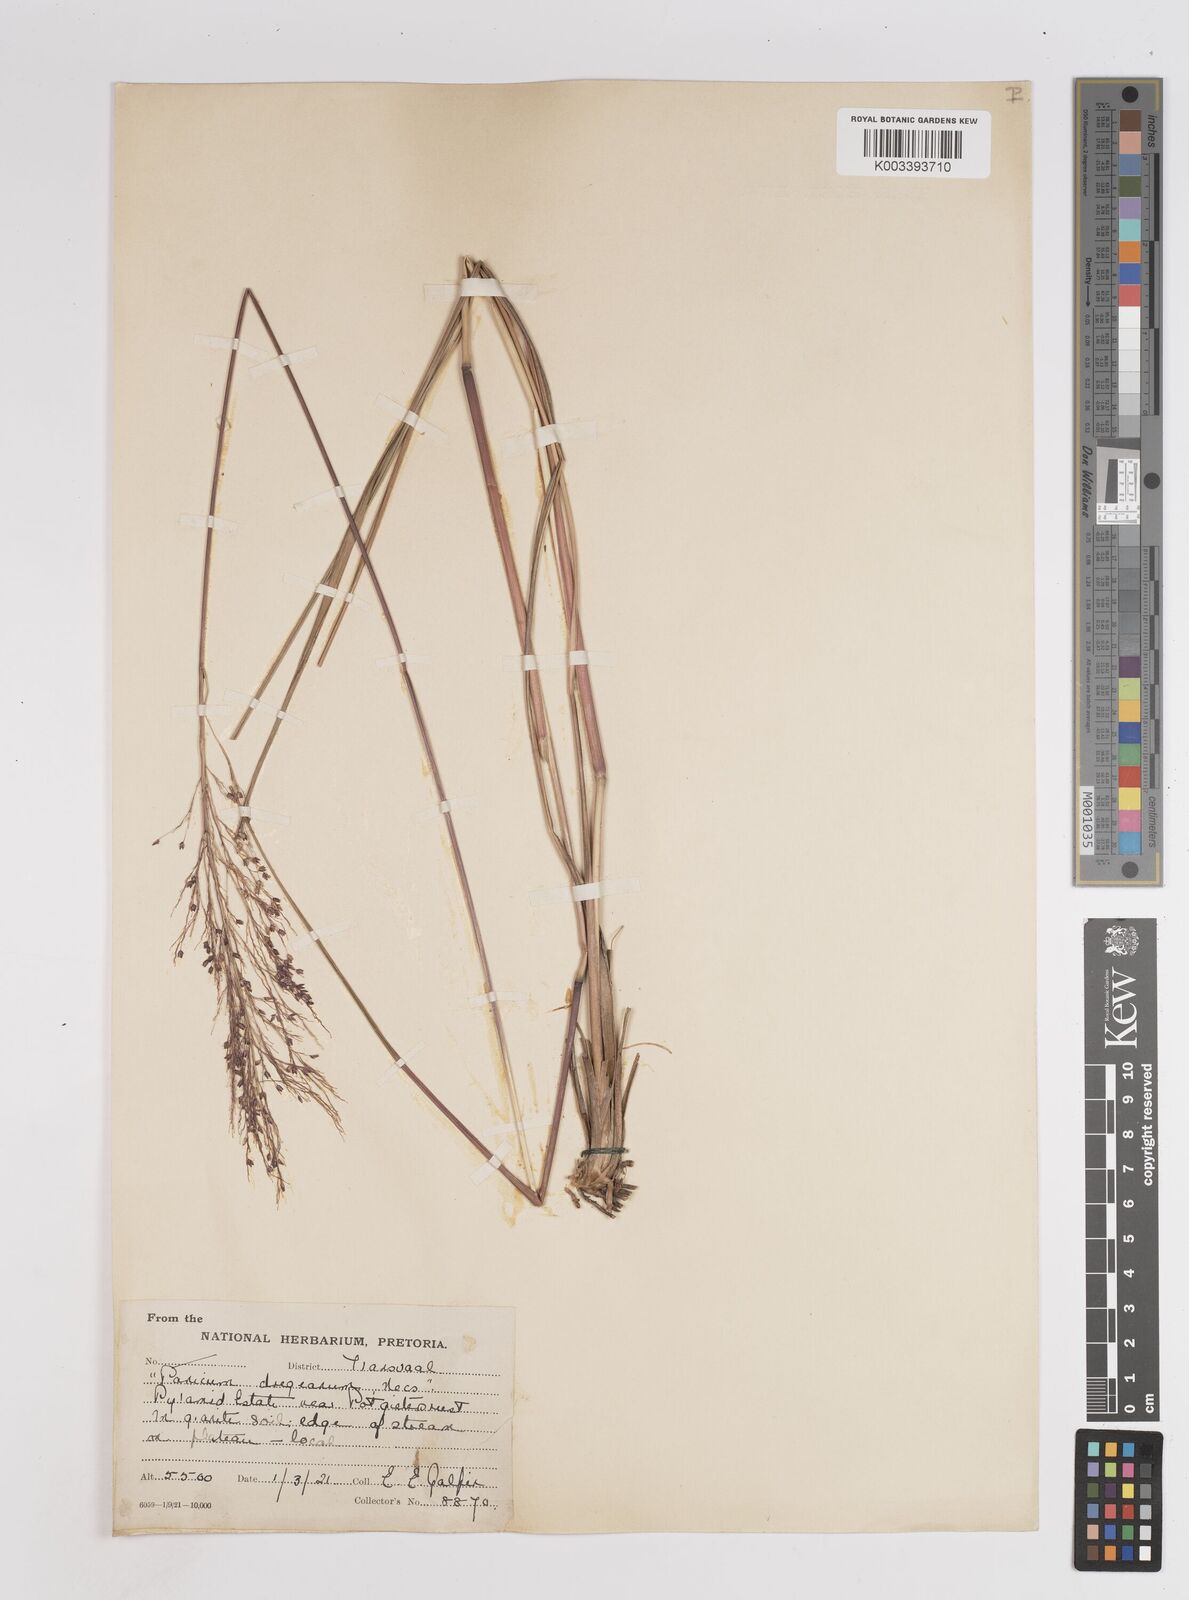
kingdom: Plantae
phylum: Tracheophyta
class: Liliopsida
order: Poales
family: Poaceae
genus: Panicum
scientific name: Panicum dregeanum
